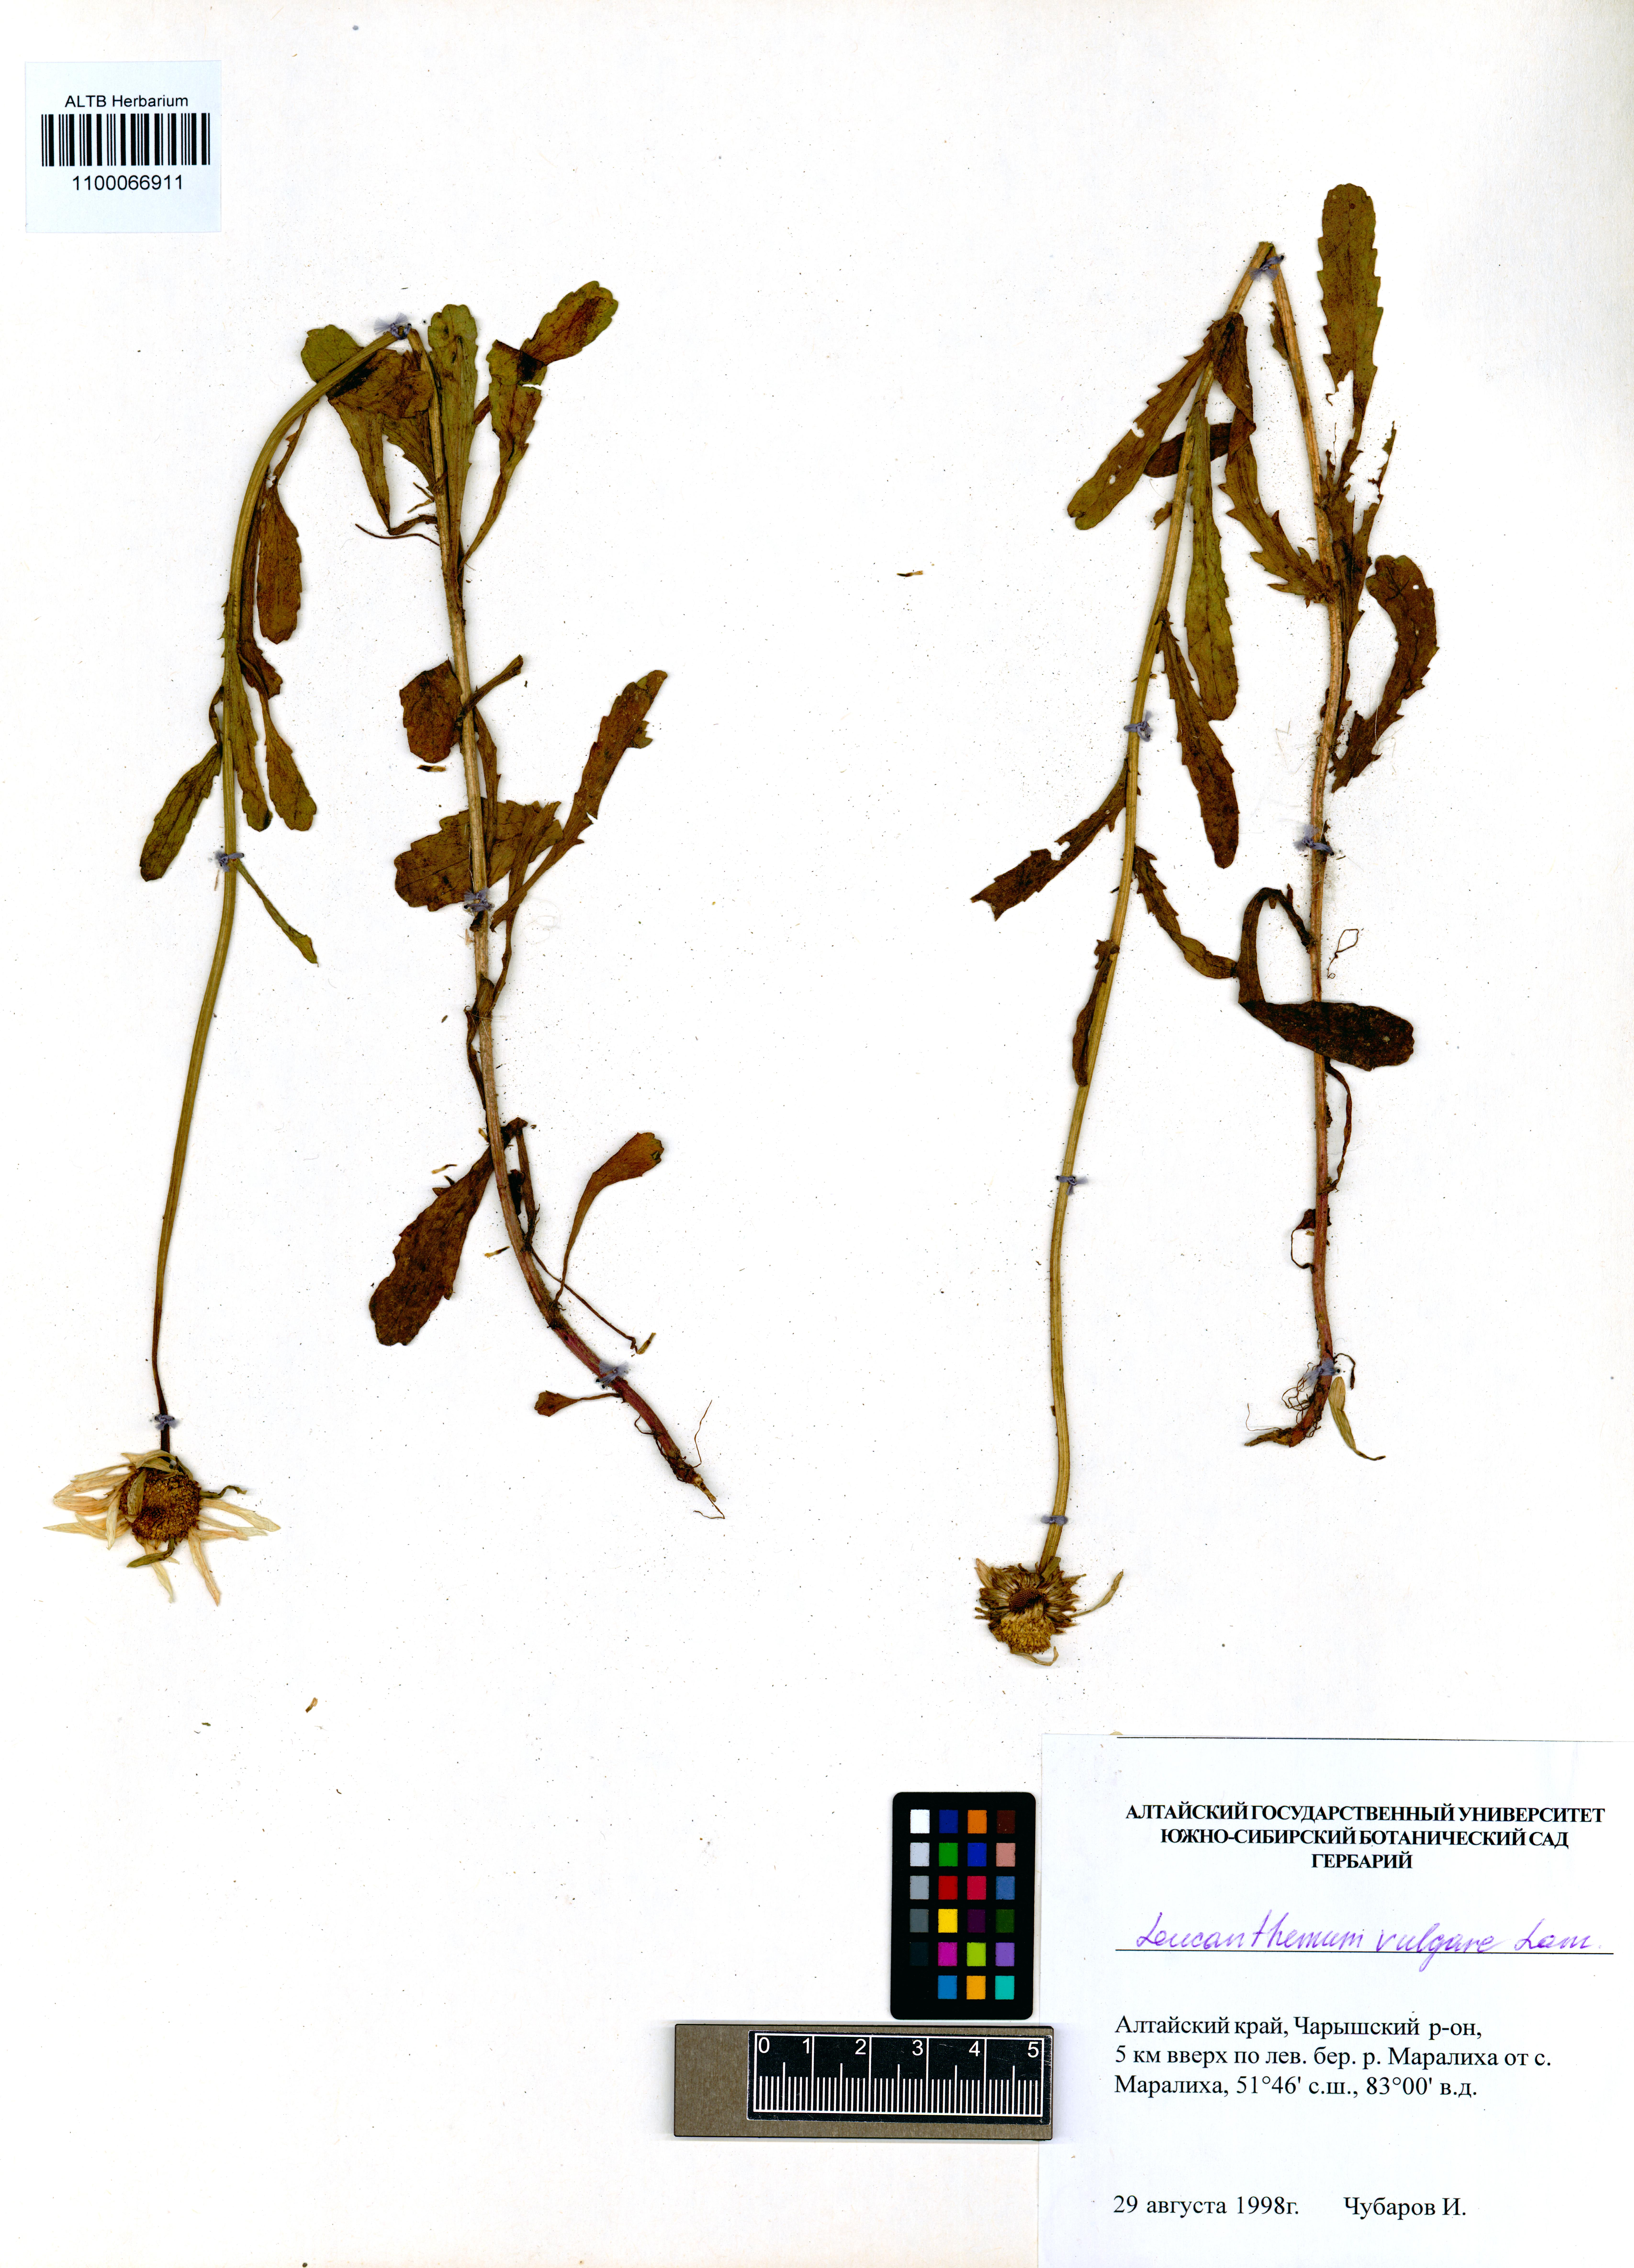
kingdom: Plantae
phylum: Tracheophyta
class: Magnoliopsida
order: Asterales
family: Asteraceae
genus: Leucanthemum
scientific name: Leucanthemum vulgare
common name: Oxeye daisy
